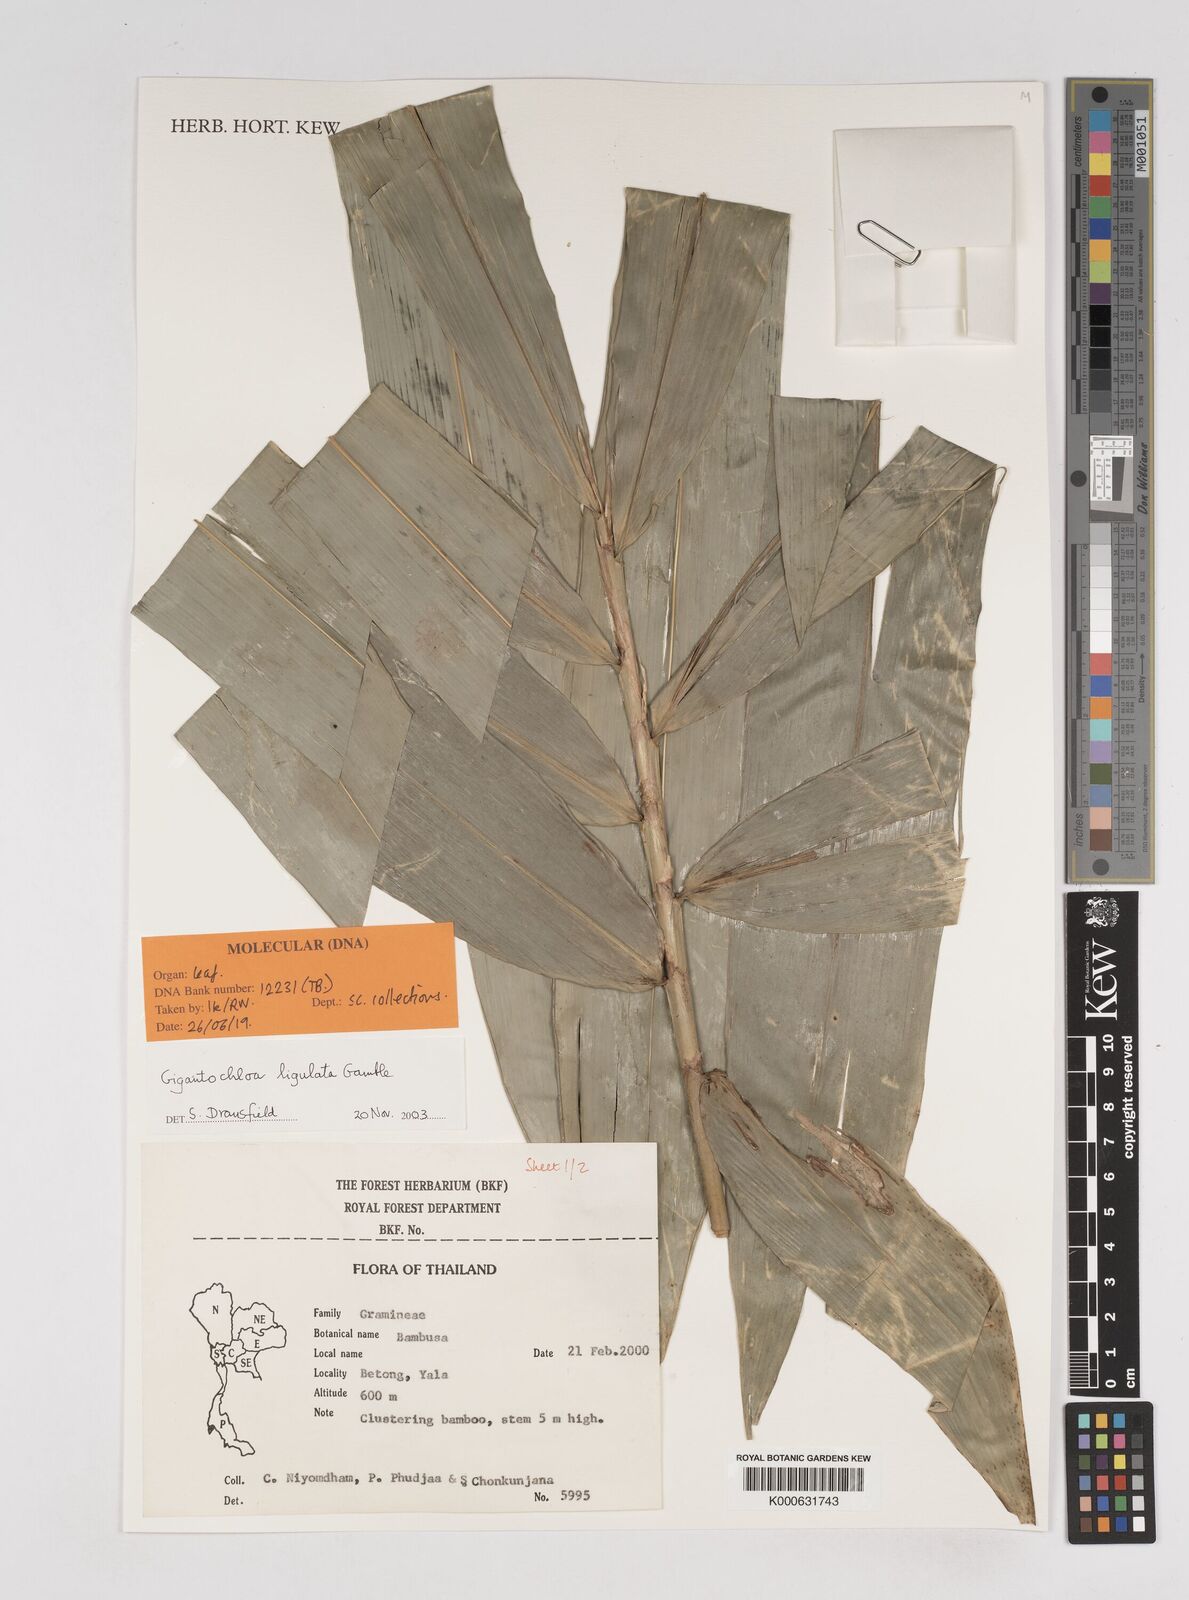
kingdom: Plantae
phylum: Tracheophyta
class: Liliopsida
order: Poales
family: Poaceae
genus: Gigantochloa
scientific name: Gigantochloa ligulata
